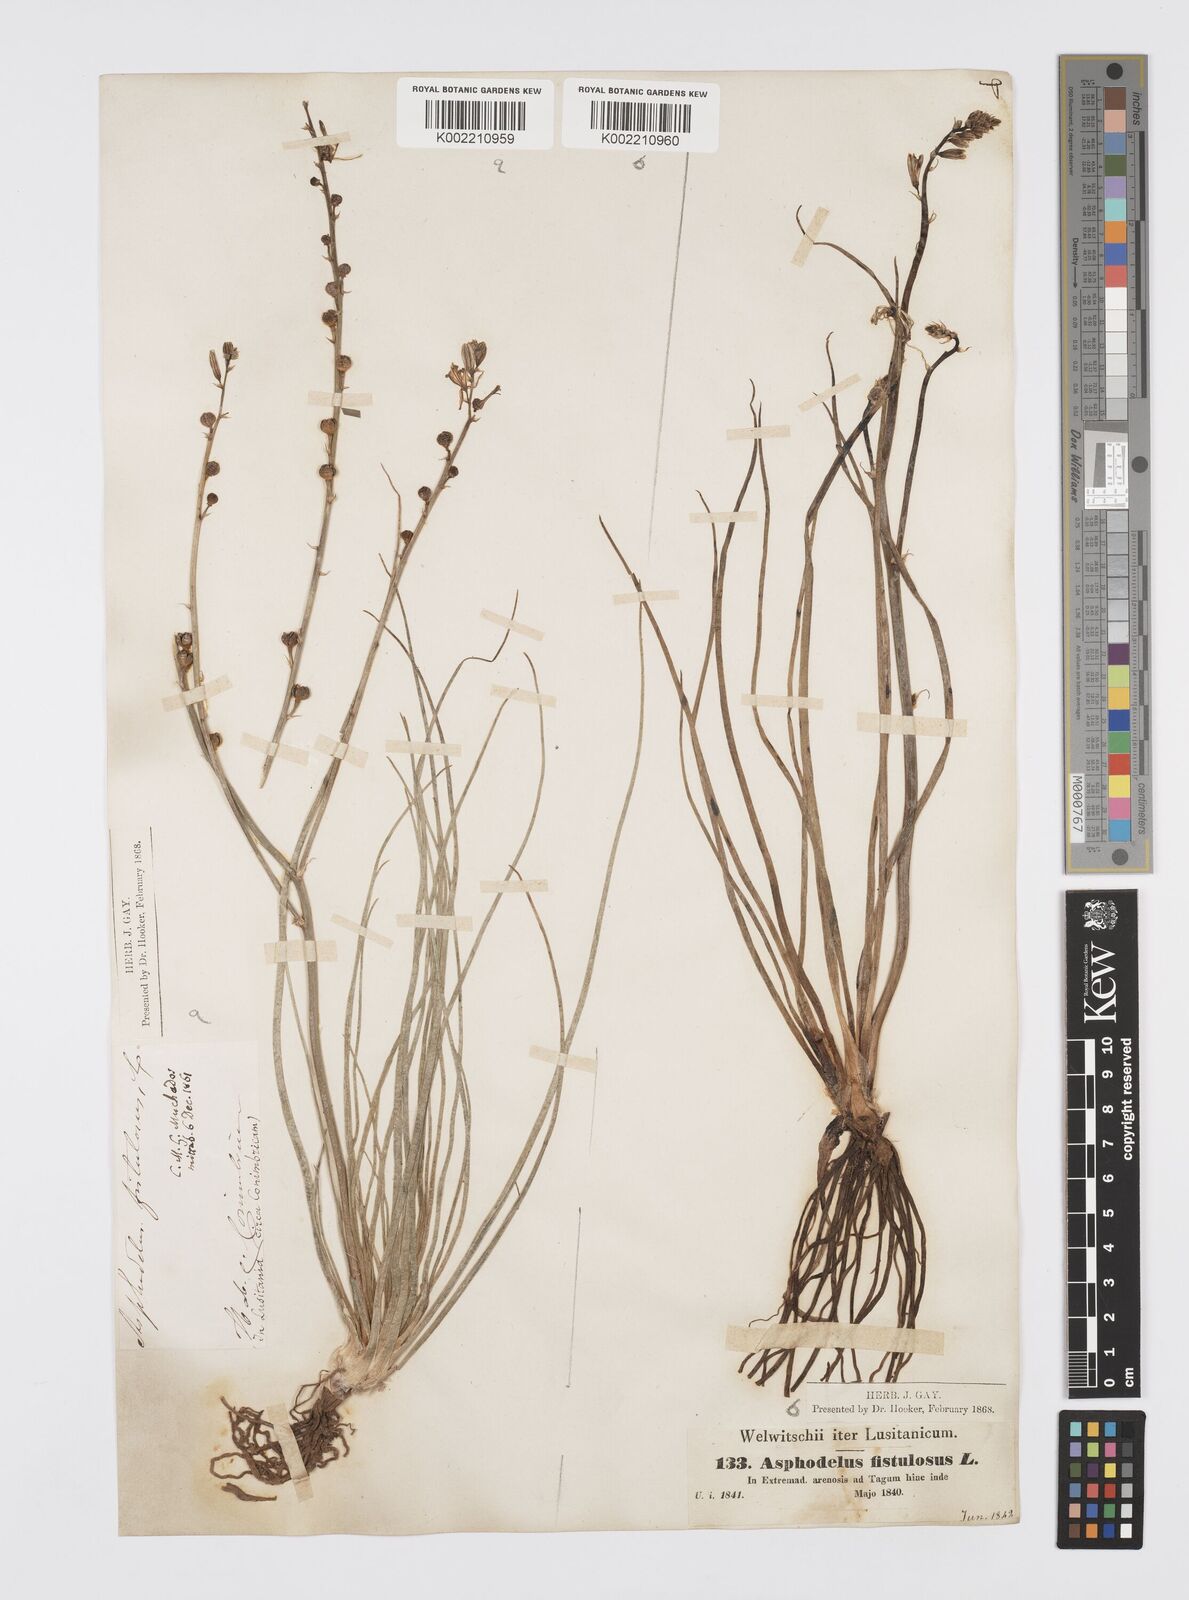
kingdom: Plantae
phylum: Tracheophyta
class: Liliopsida
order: Asparagales
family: Asphodelaceae
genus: Asphodelus
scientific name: Asphodelus fistulosus
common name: Onionweed
